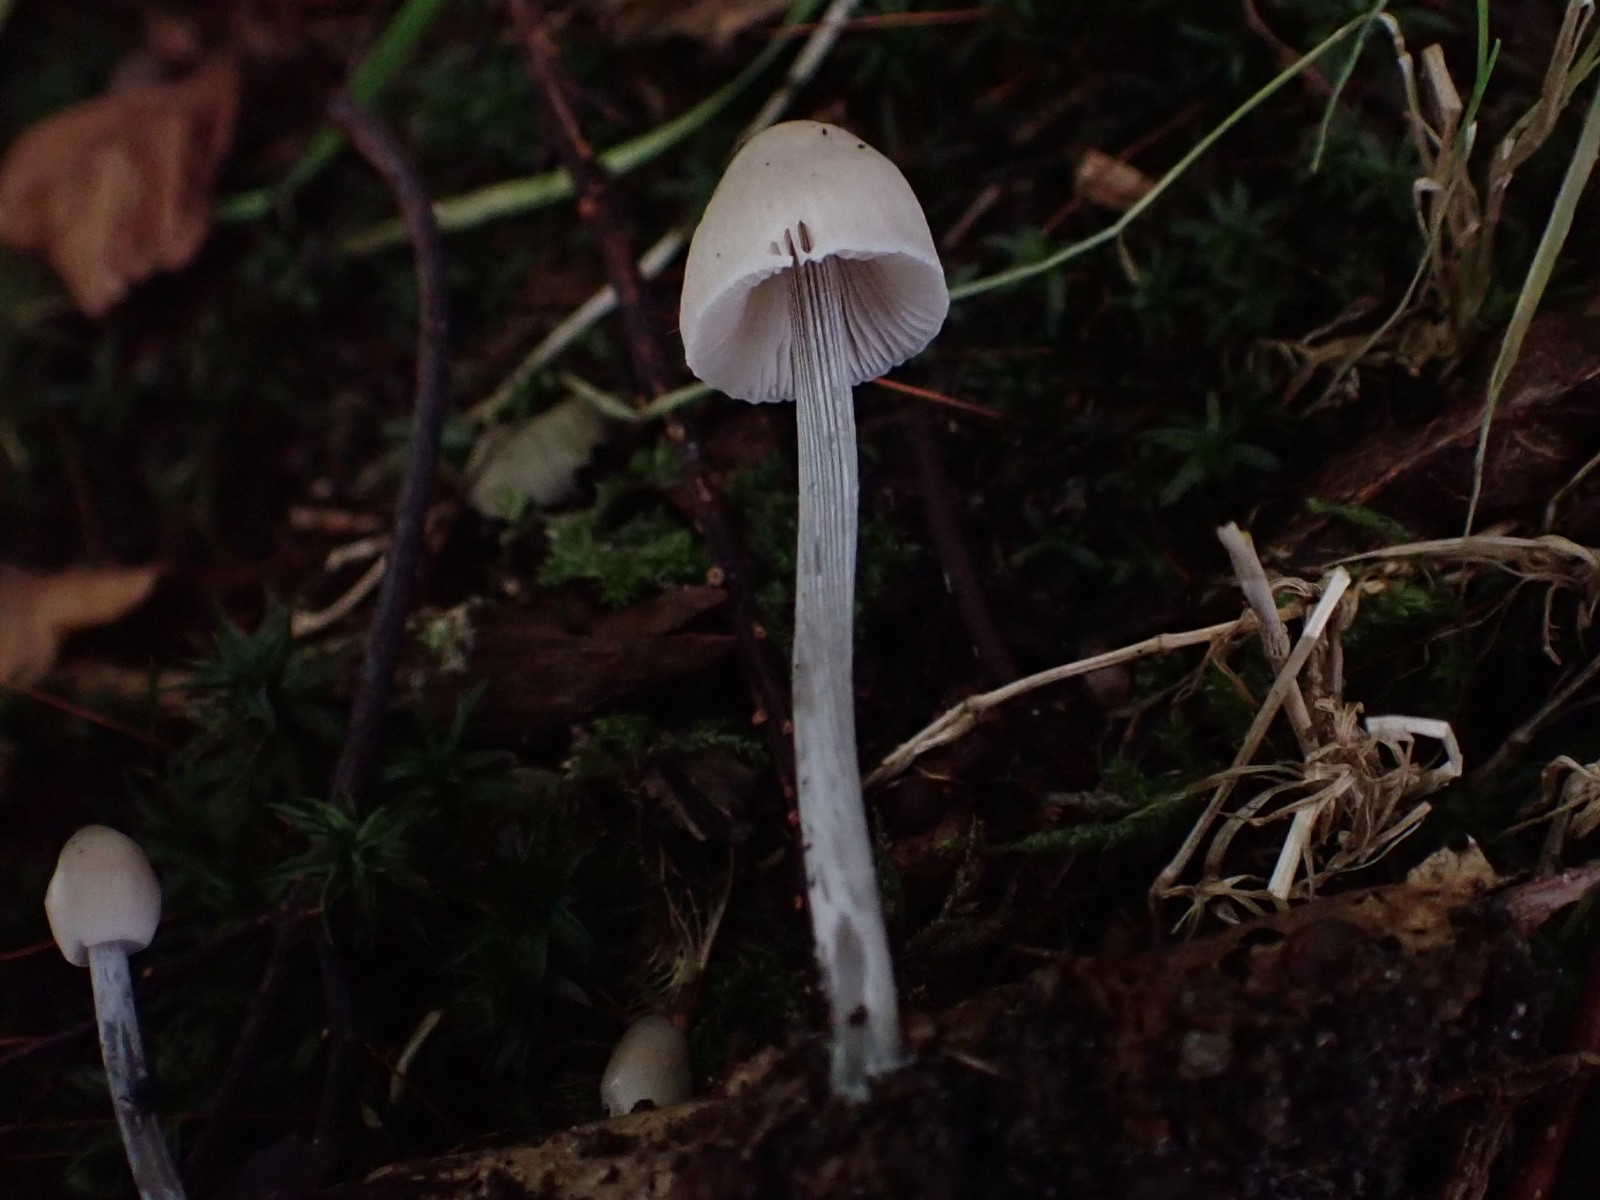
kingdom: Fungi
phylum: Basidiomycota
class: Agaricomycetes
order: Agaricales
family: Mycenaceae
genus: Mycena
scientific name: Mycena polygramma
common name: mangestribet huesvamp
